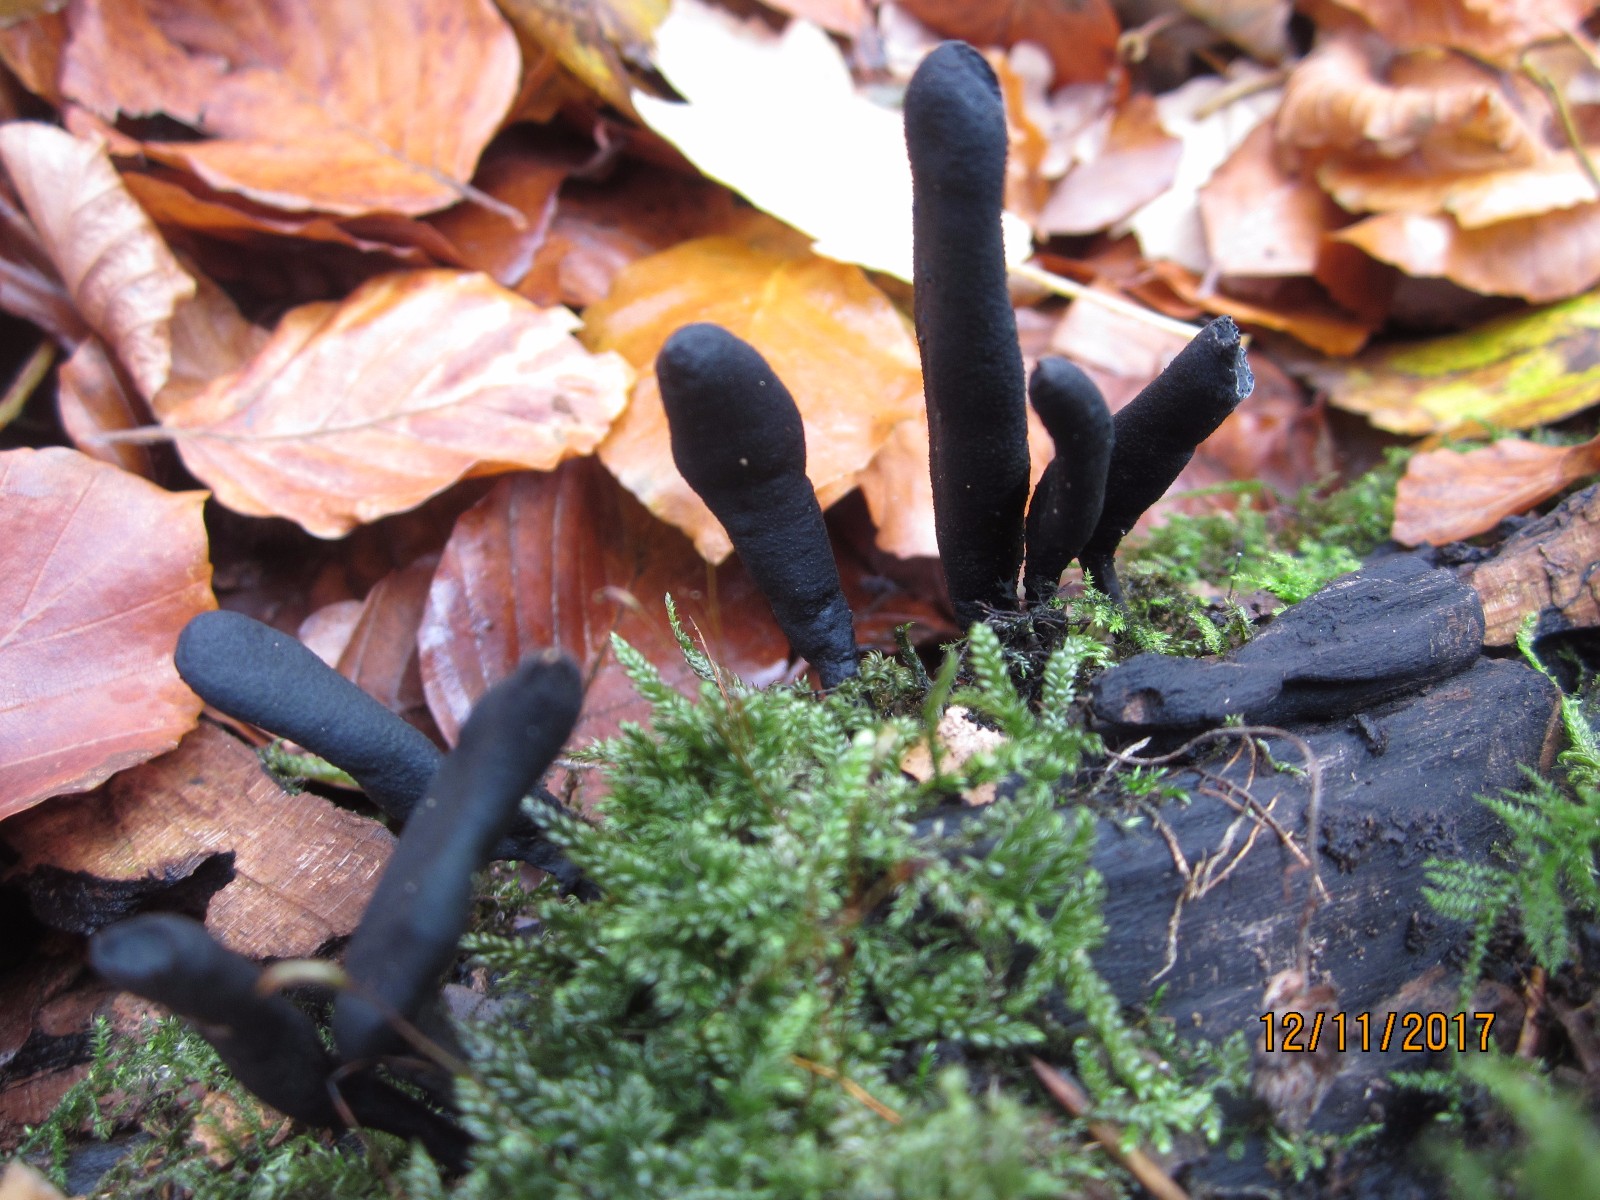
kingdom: Fungi
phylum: Ascomycota
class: Sordariomycetes
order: Xylariales
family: Xylariaceae
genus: Xylaria
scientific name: Xylaria longipes
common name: slank stødsvamp
